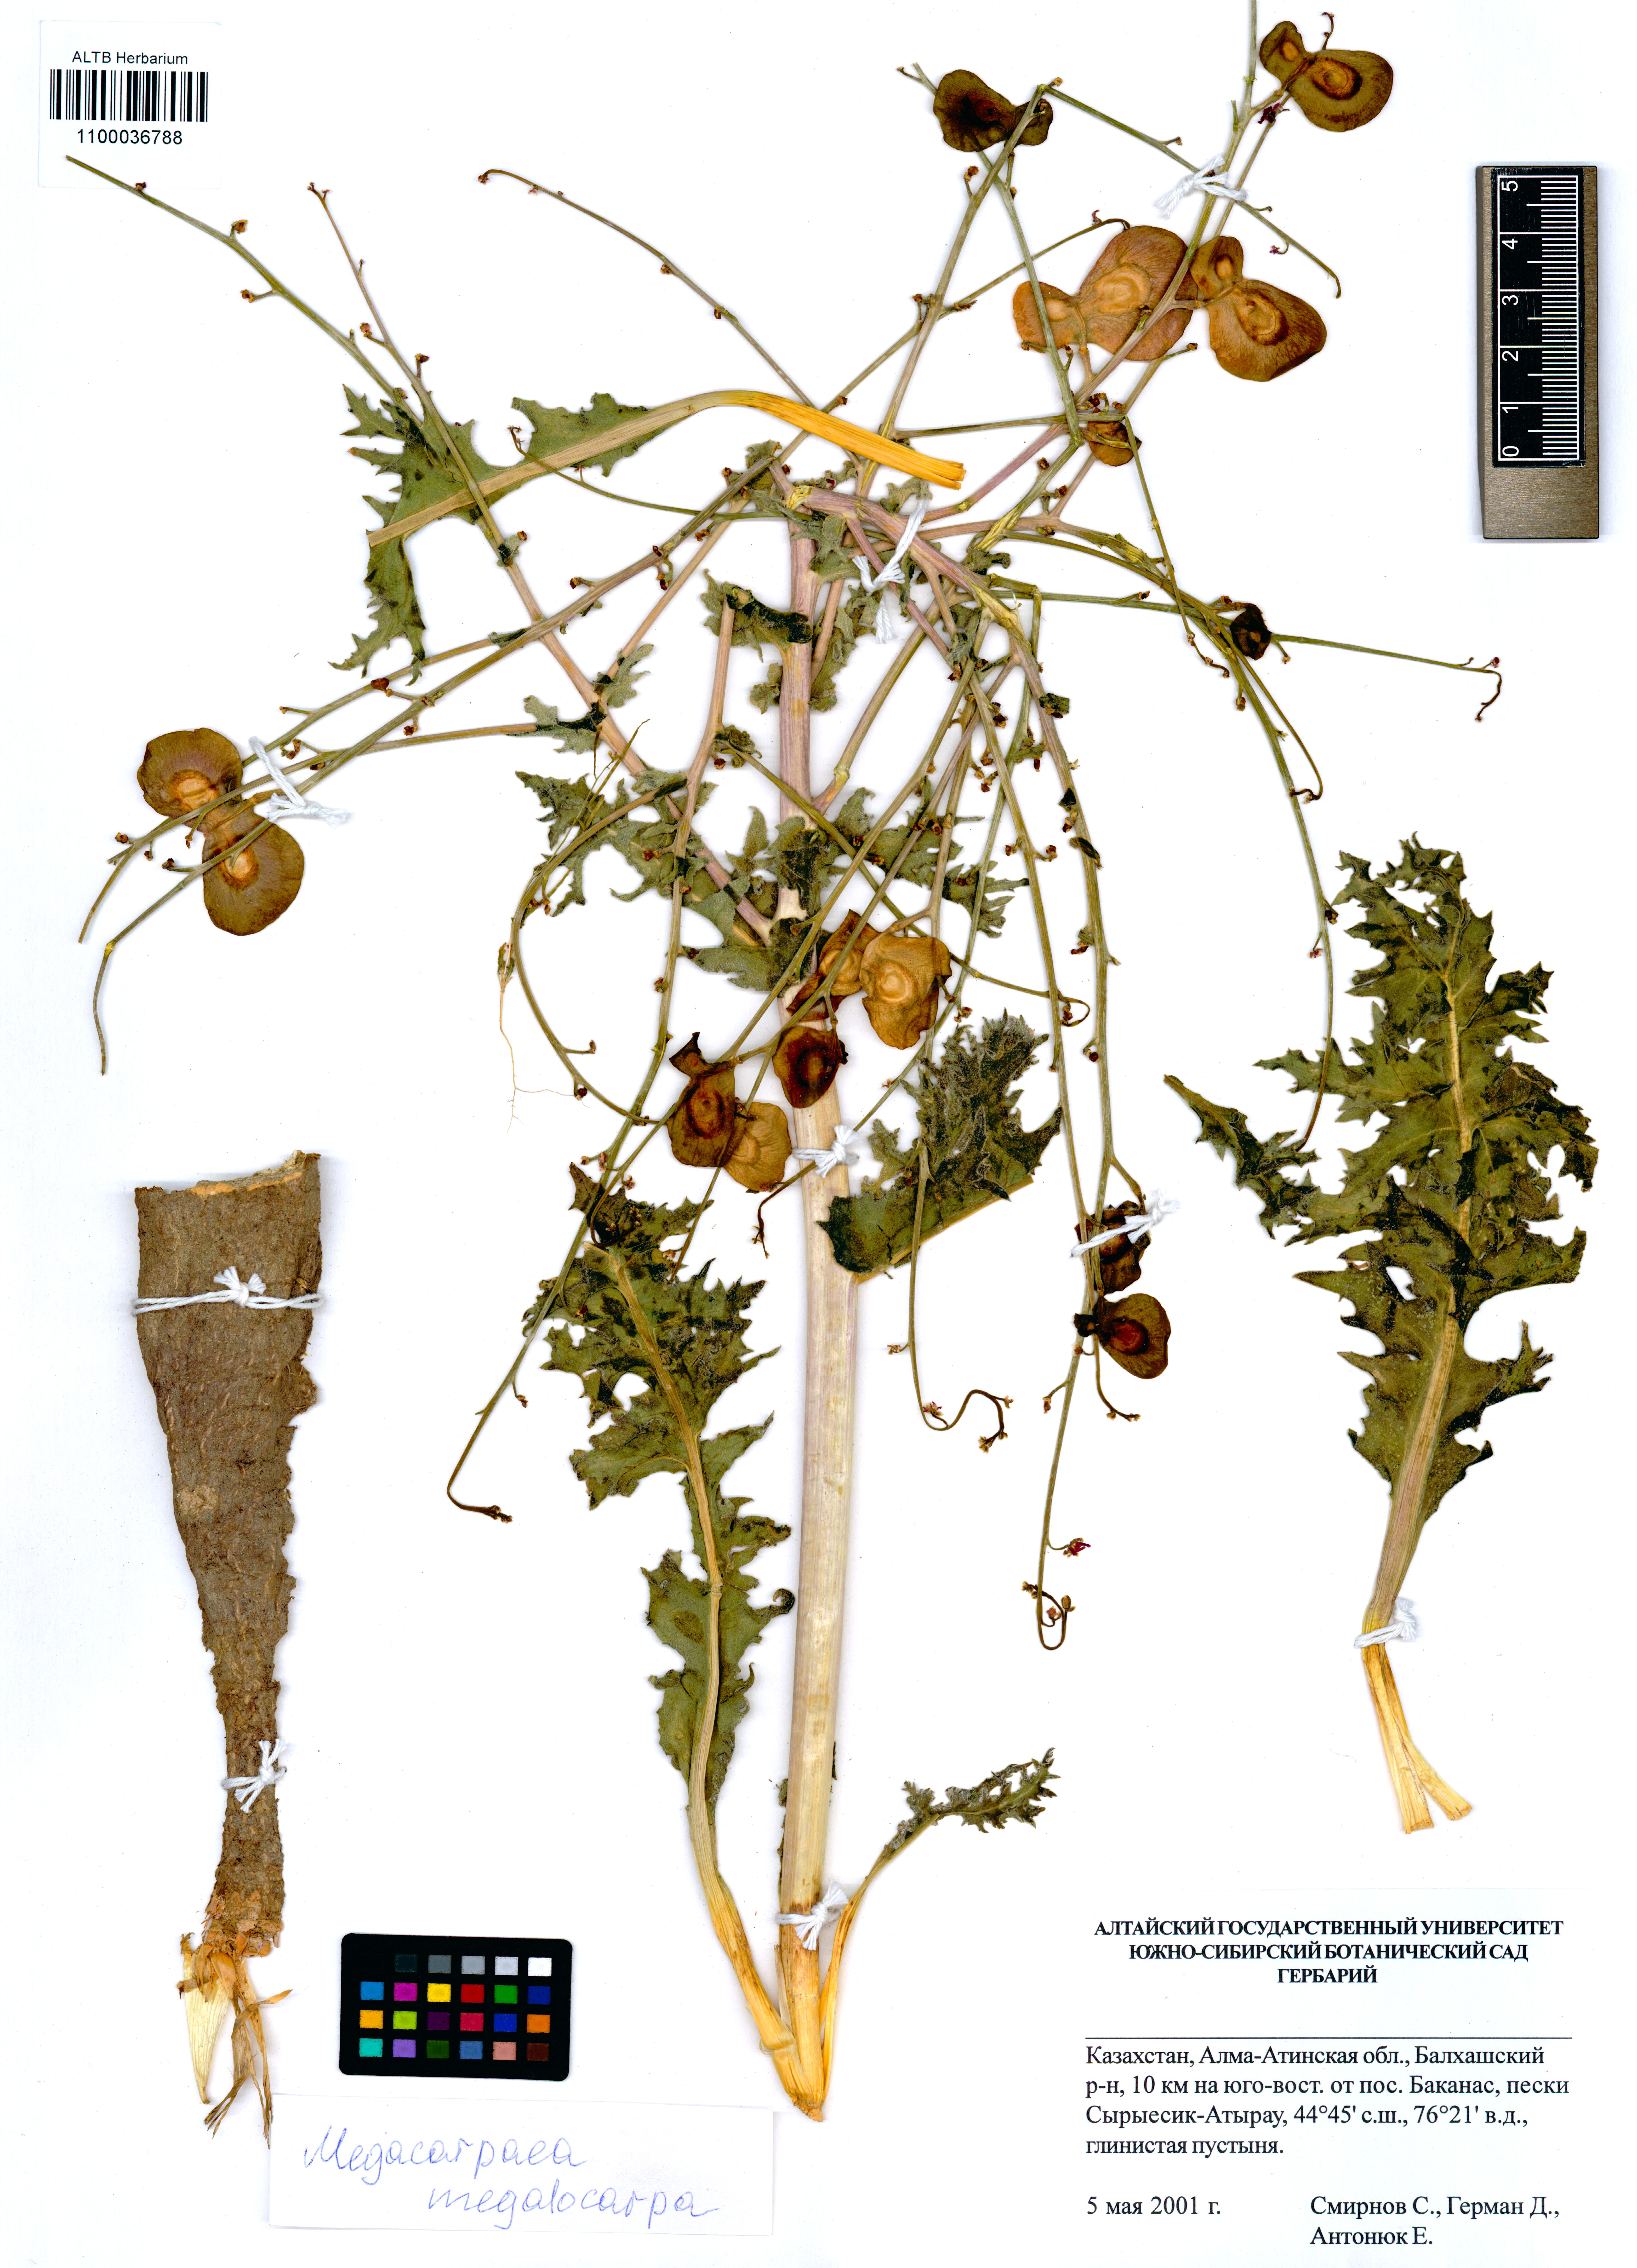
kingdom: Plantae
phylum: Tracheophyta
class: Magnoliopsida
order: Brassicales
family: Brassicaceae
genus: Megacarpaea
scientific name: Megacarpaea megalocarpa
